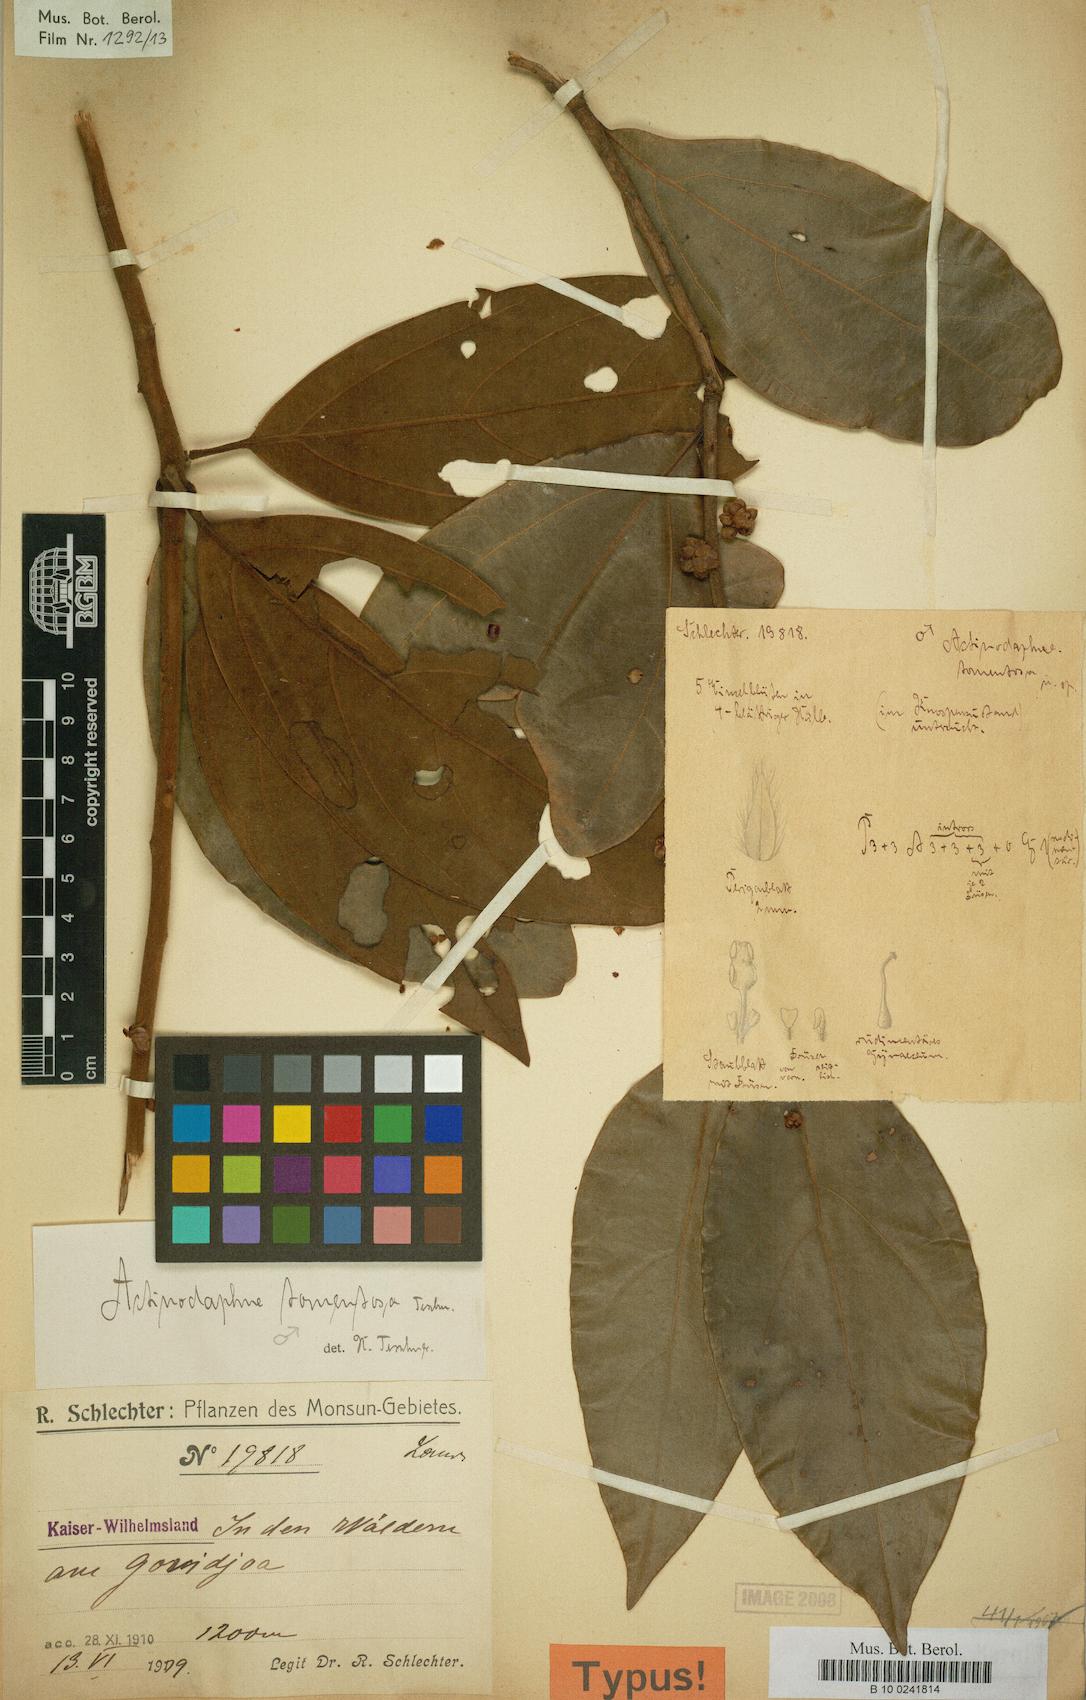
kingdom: Plantae
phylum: Tracheophyta
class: Magnoliopsida
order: Laurales
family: Lauraceae
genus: Neolitsea
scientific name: Neolitsea pubescens
